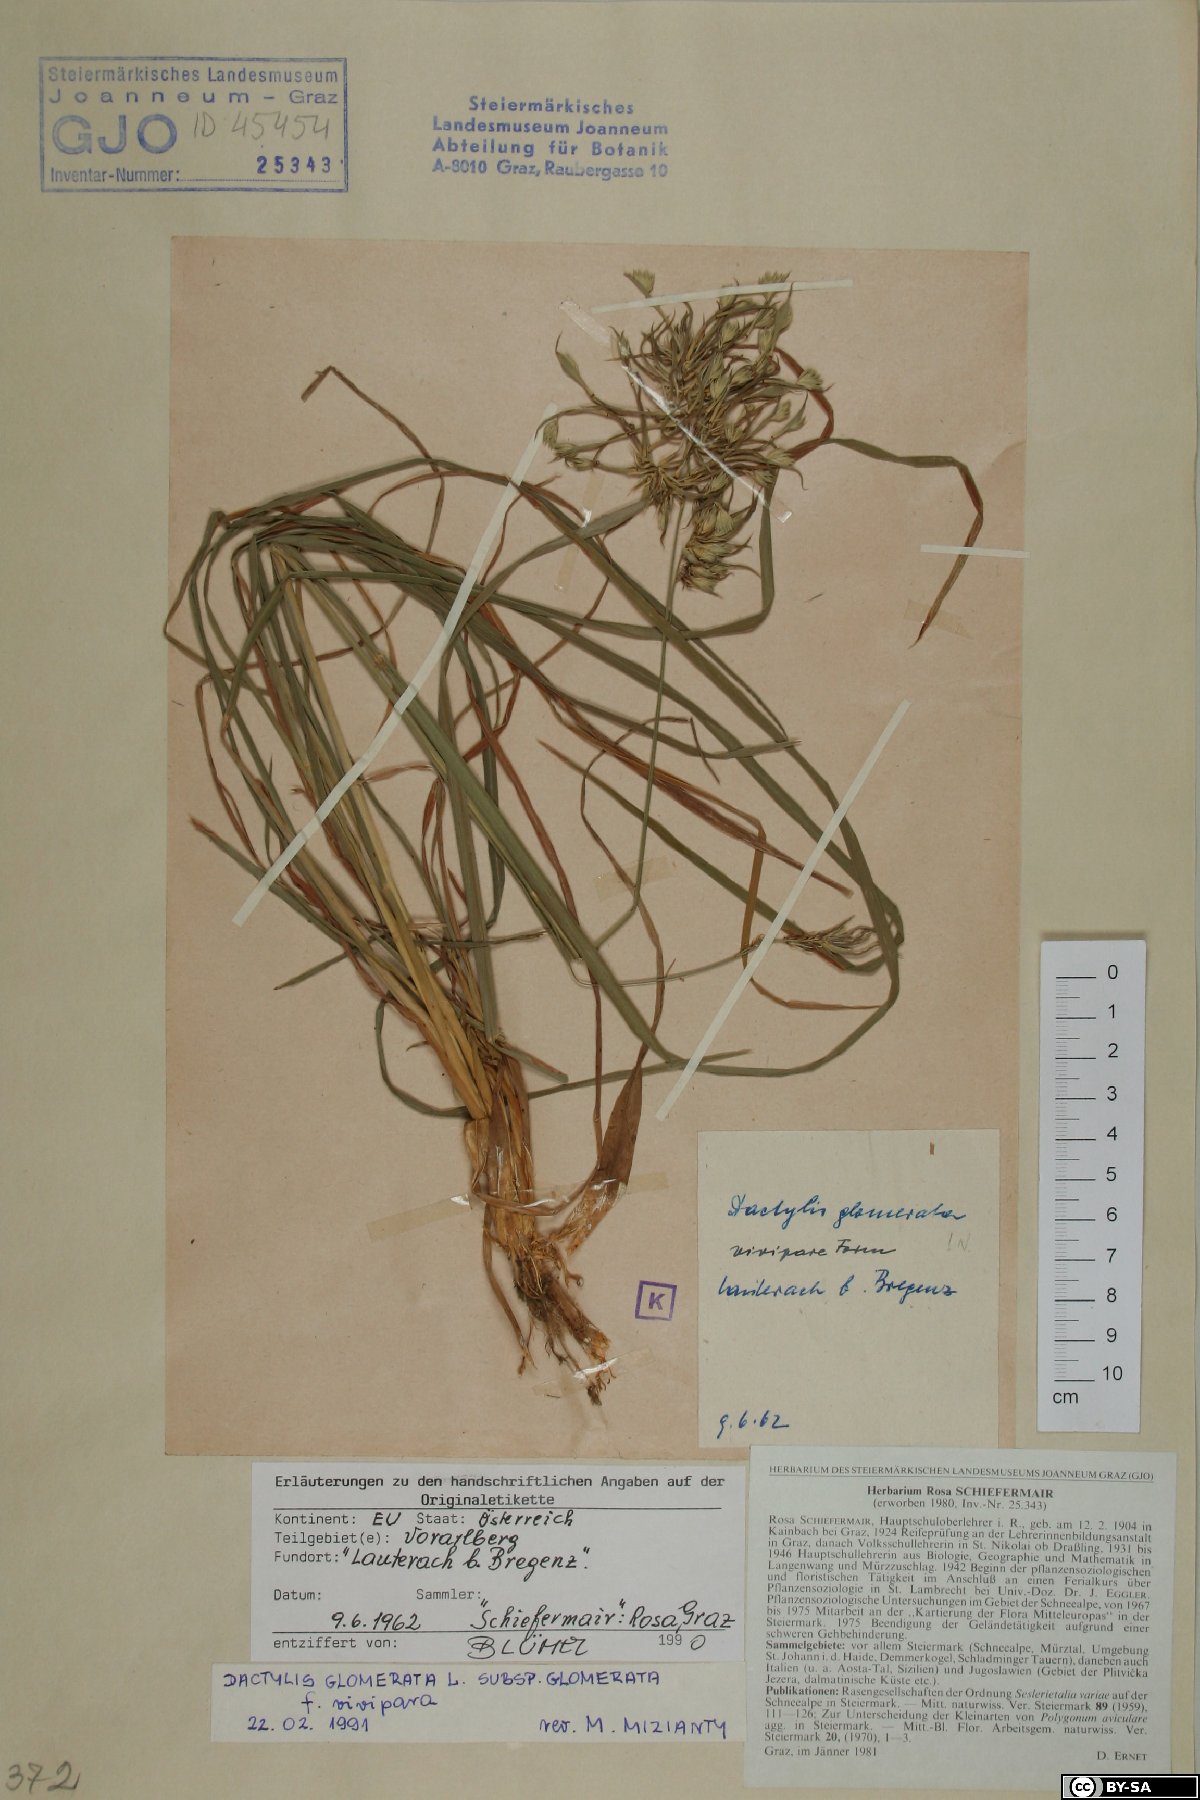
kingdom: Plantae
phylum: Tracheophyta
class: Liliopsida
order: Poales
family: Poaceae
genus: Dactylis
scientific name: Dactylis glomerata
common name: Orchardgrass
